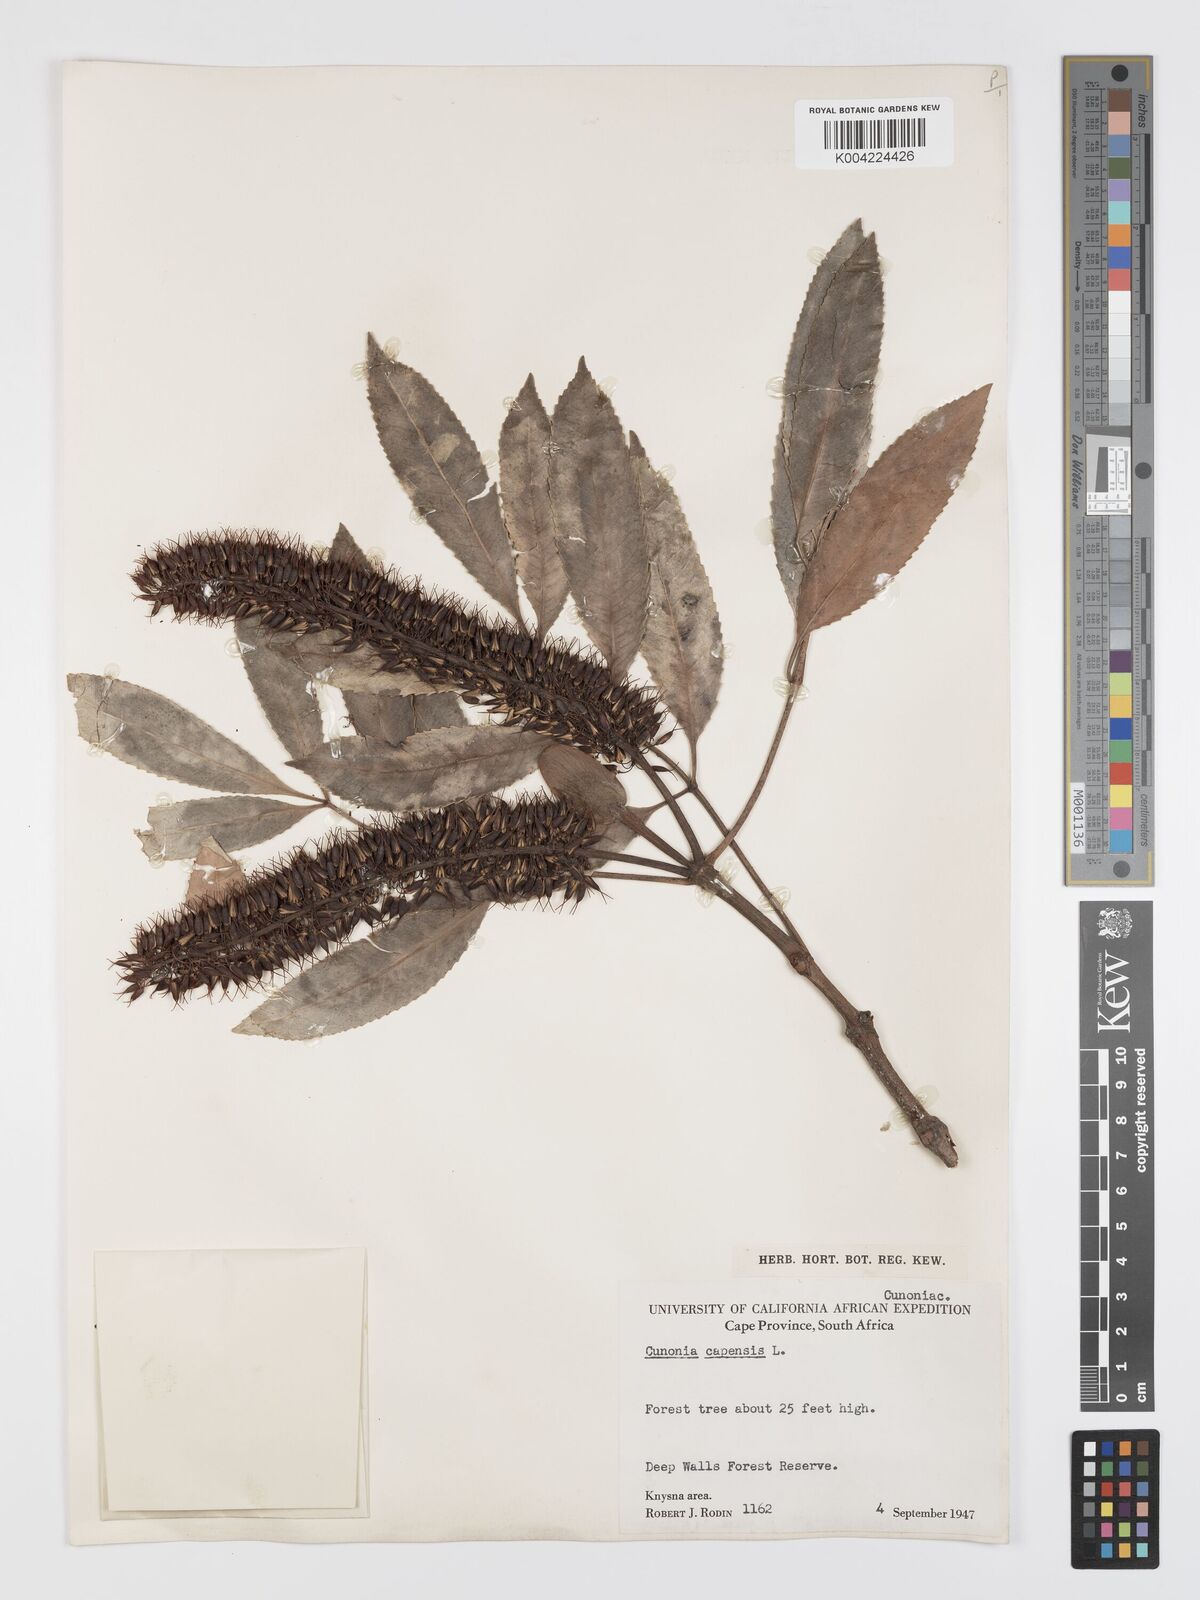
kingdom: Plantae
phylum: Tracheophyta
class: Magnoliopsida
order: Oxalidales
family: Cunoniaceae
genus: Cunonia
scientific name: Cunonia capensis
